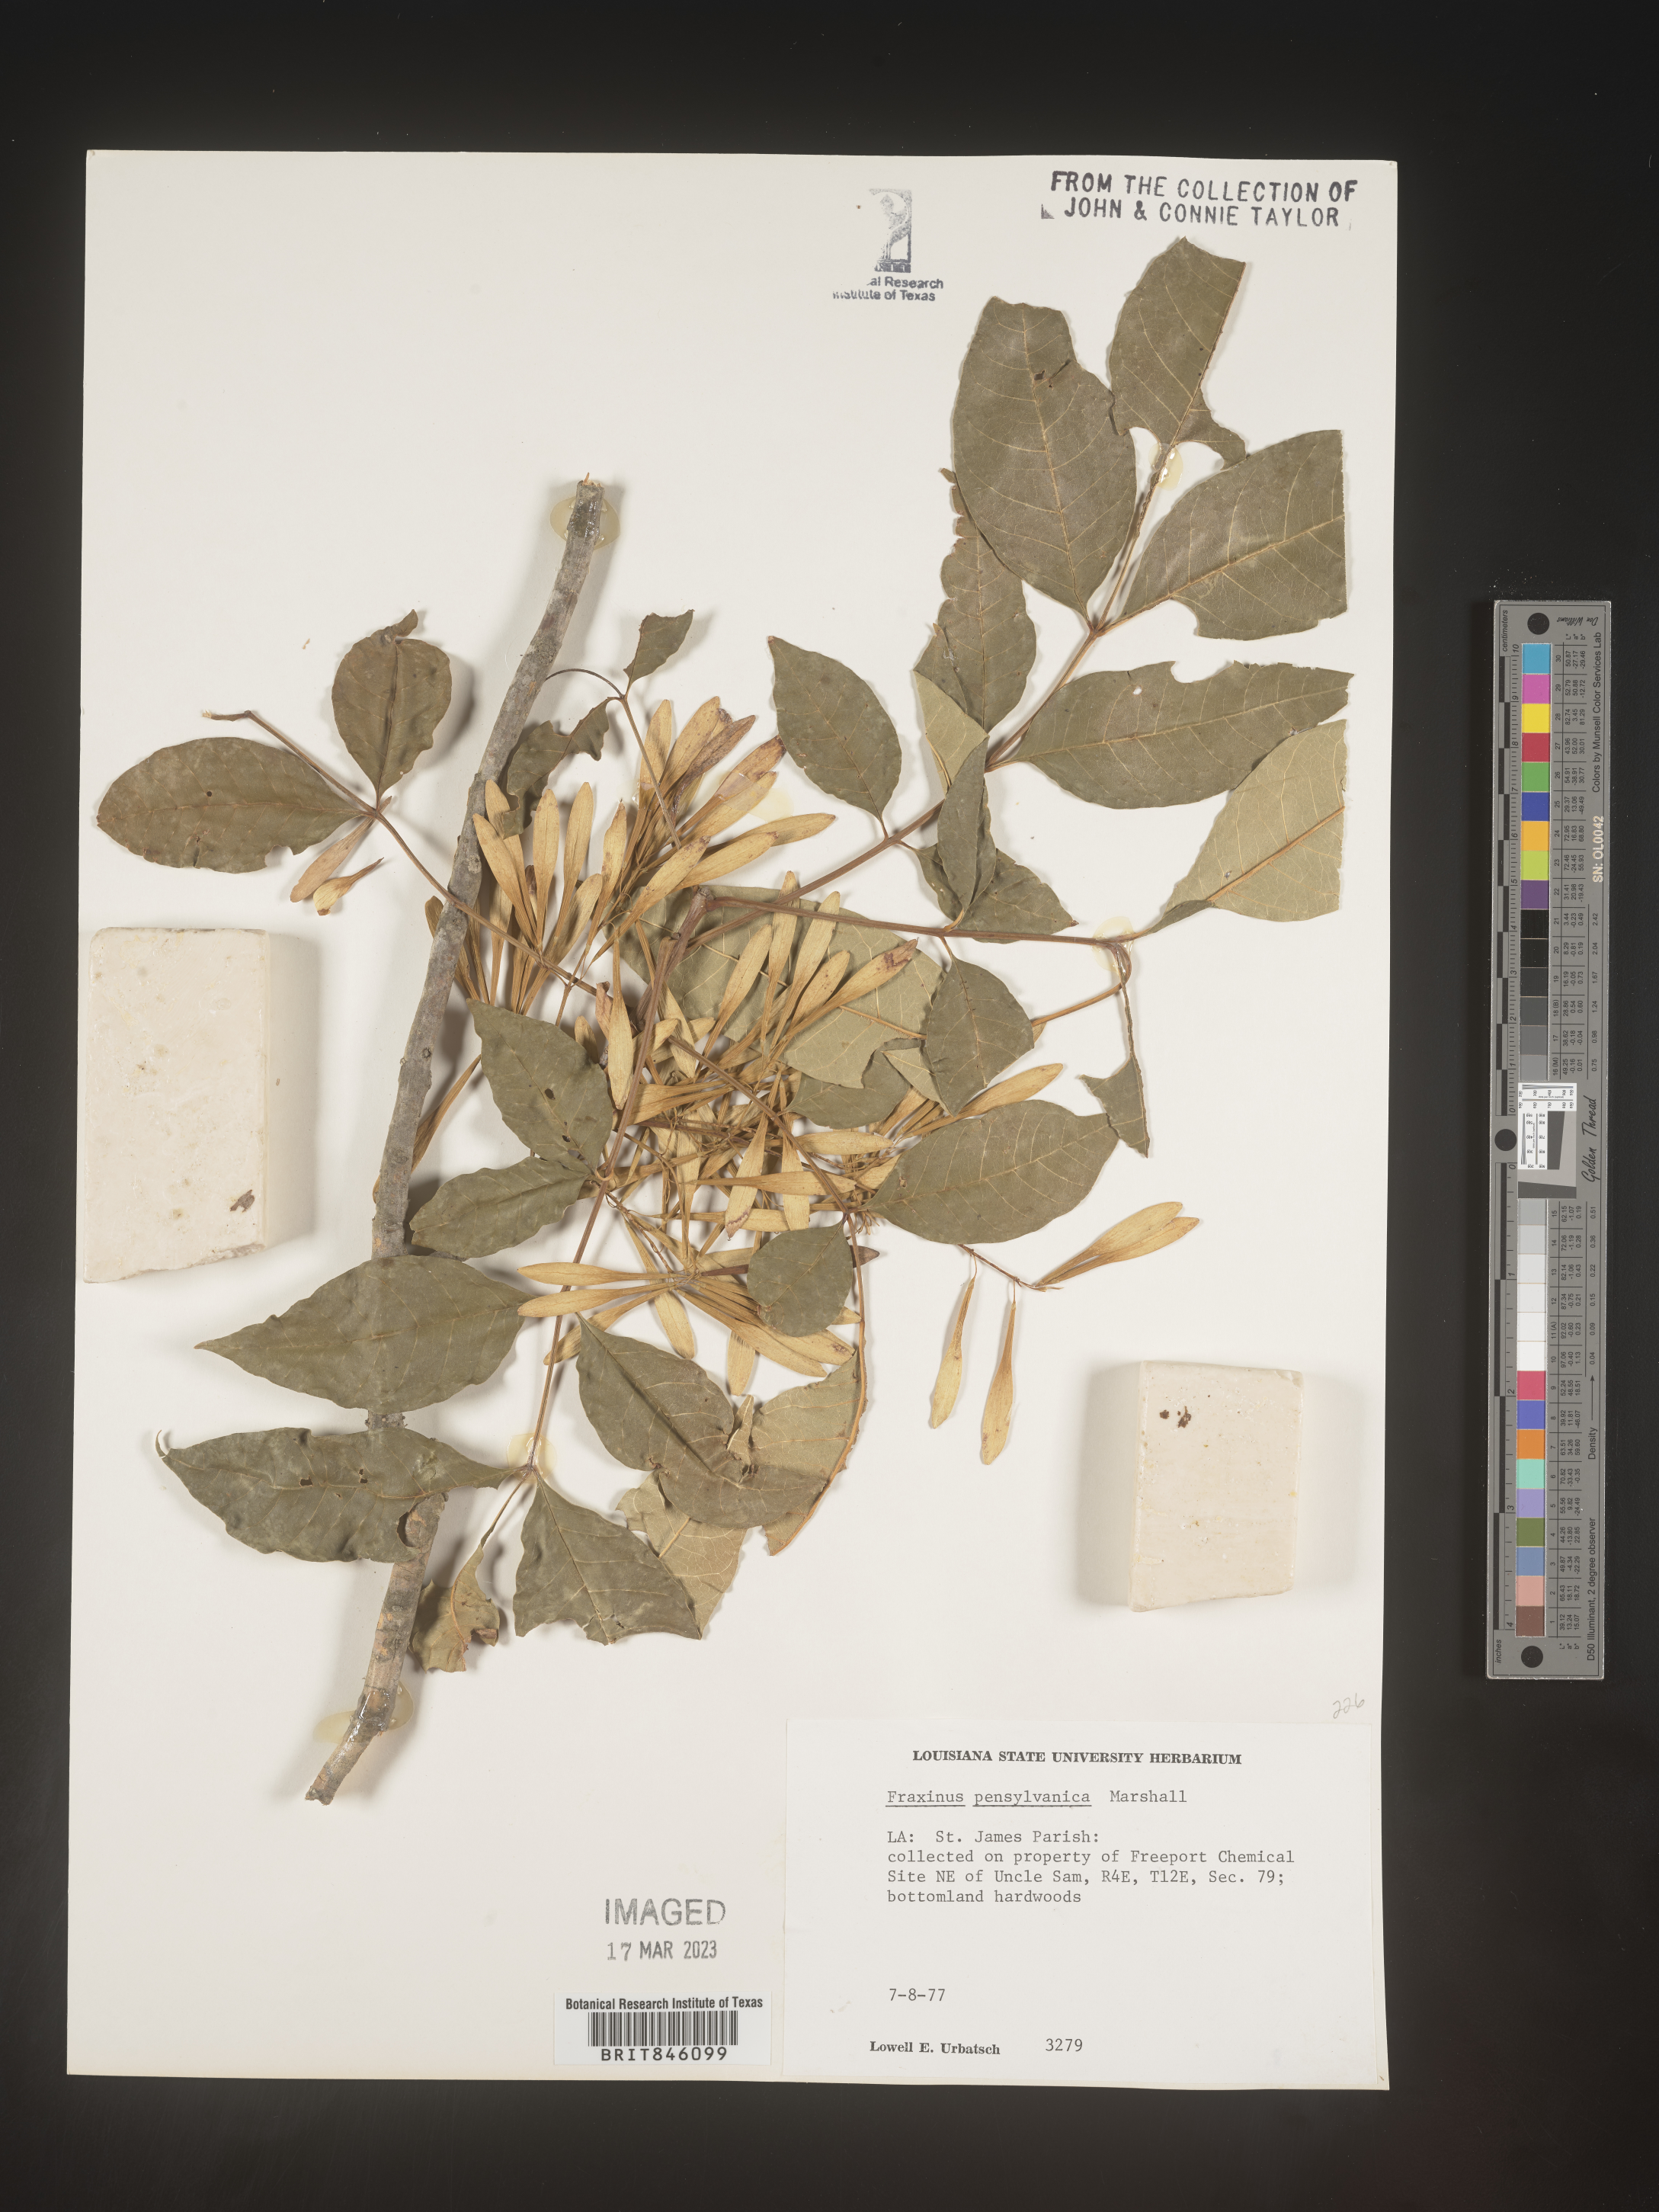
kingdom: Plantae
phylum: Tracheophyta
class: Magnoliopsida
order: Lamiales
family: Oleaceae
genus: Fraxinus
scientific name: Fraxinus pennsylvanica
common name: Green ash
